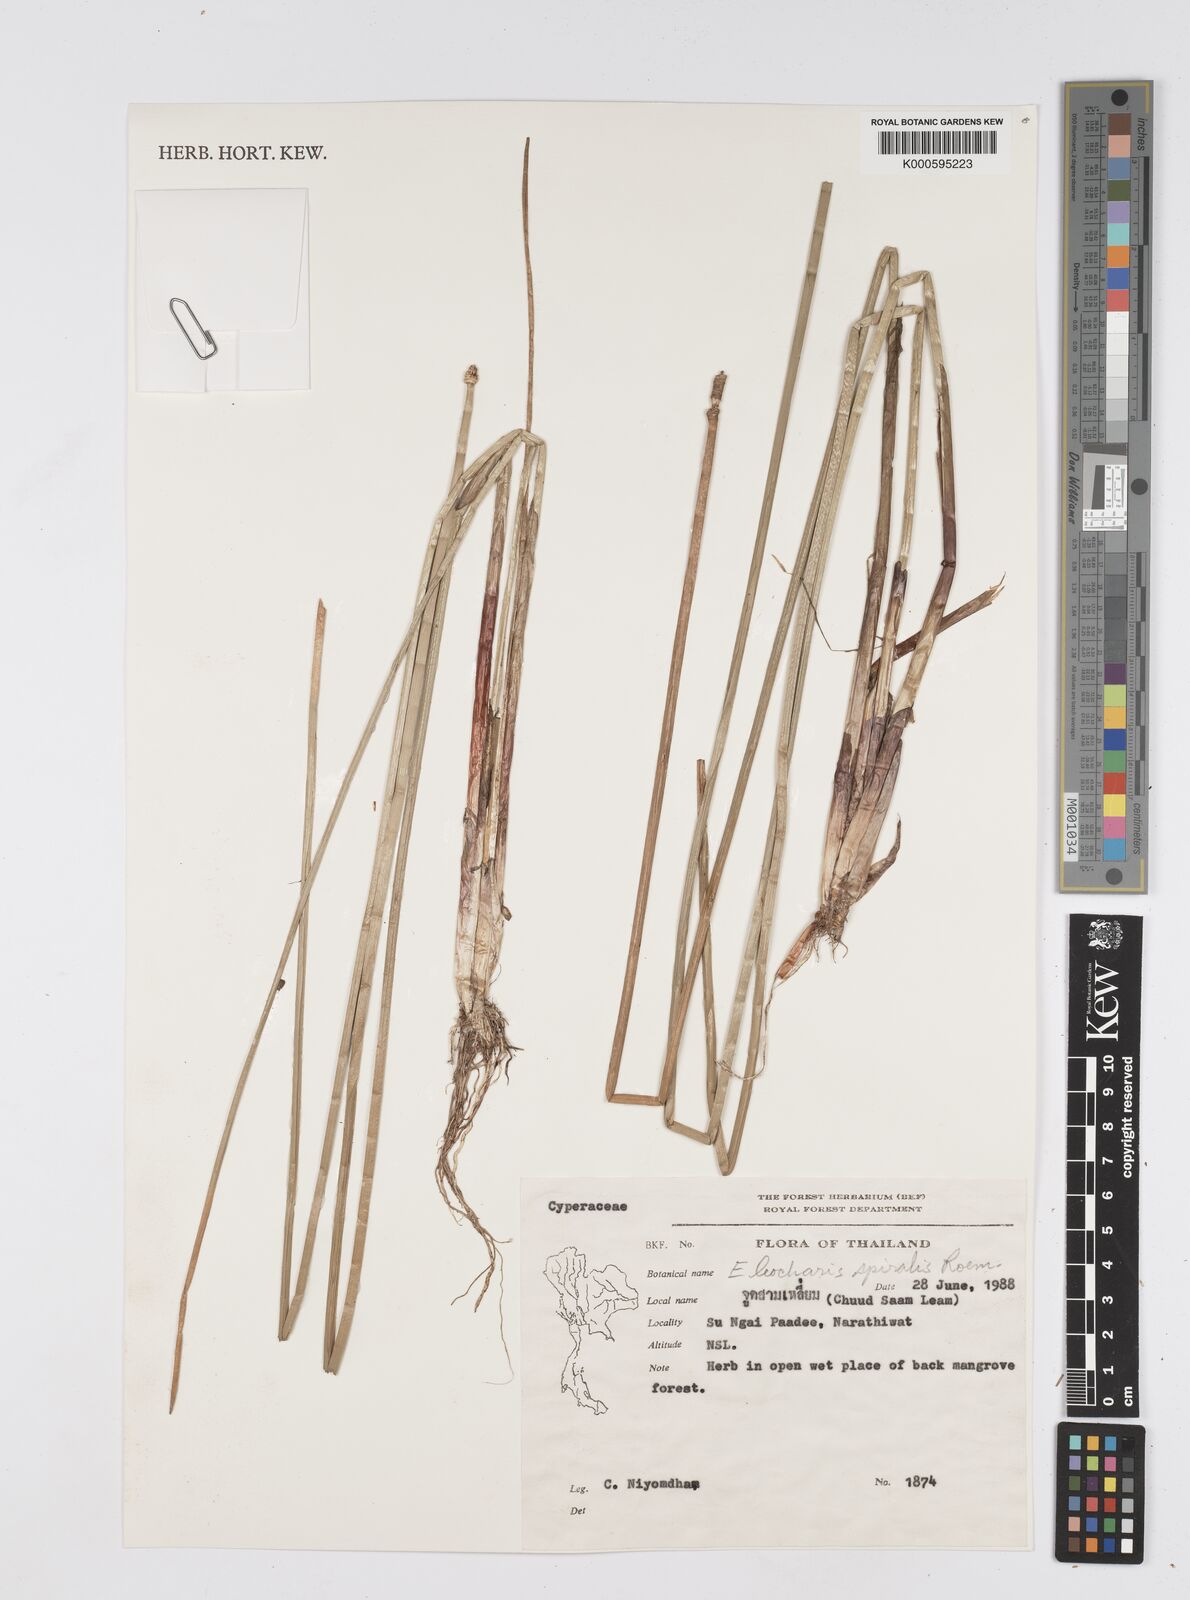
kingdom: Plantae
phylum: Tracheophyta
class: Liliopsida
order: Poales
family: Cyperaceae
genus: Eleocharis
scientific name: Eleocharis spiralis
